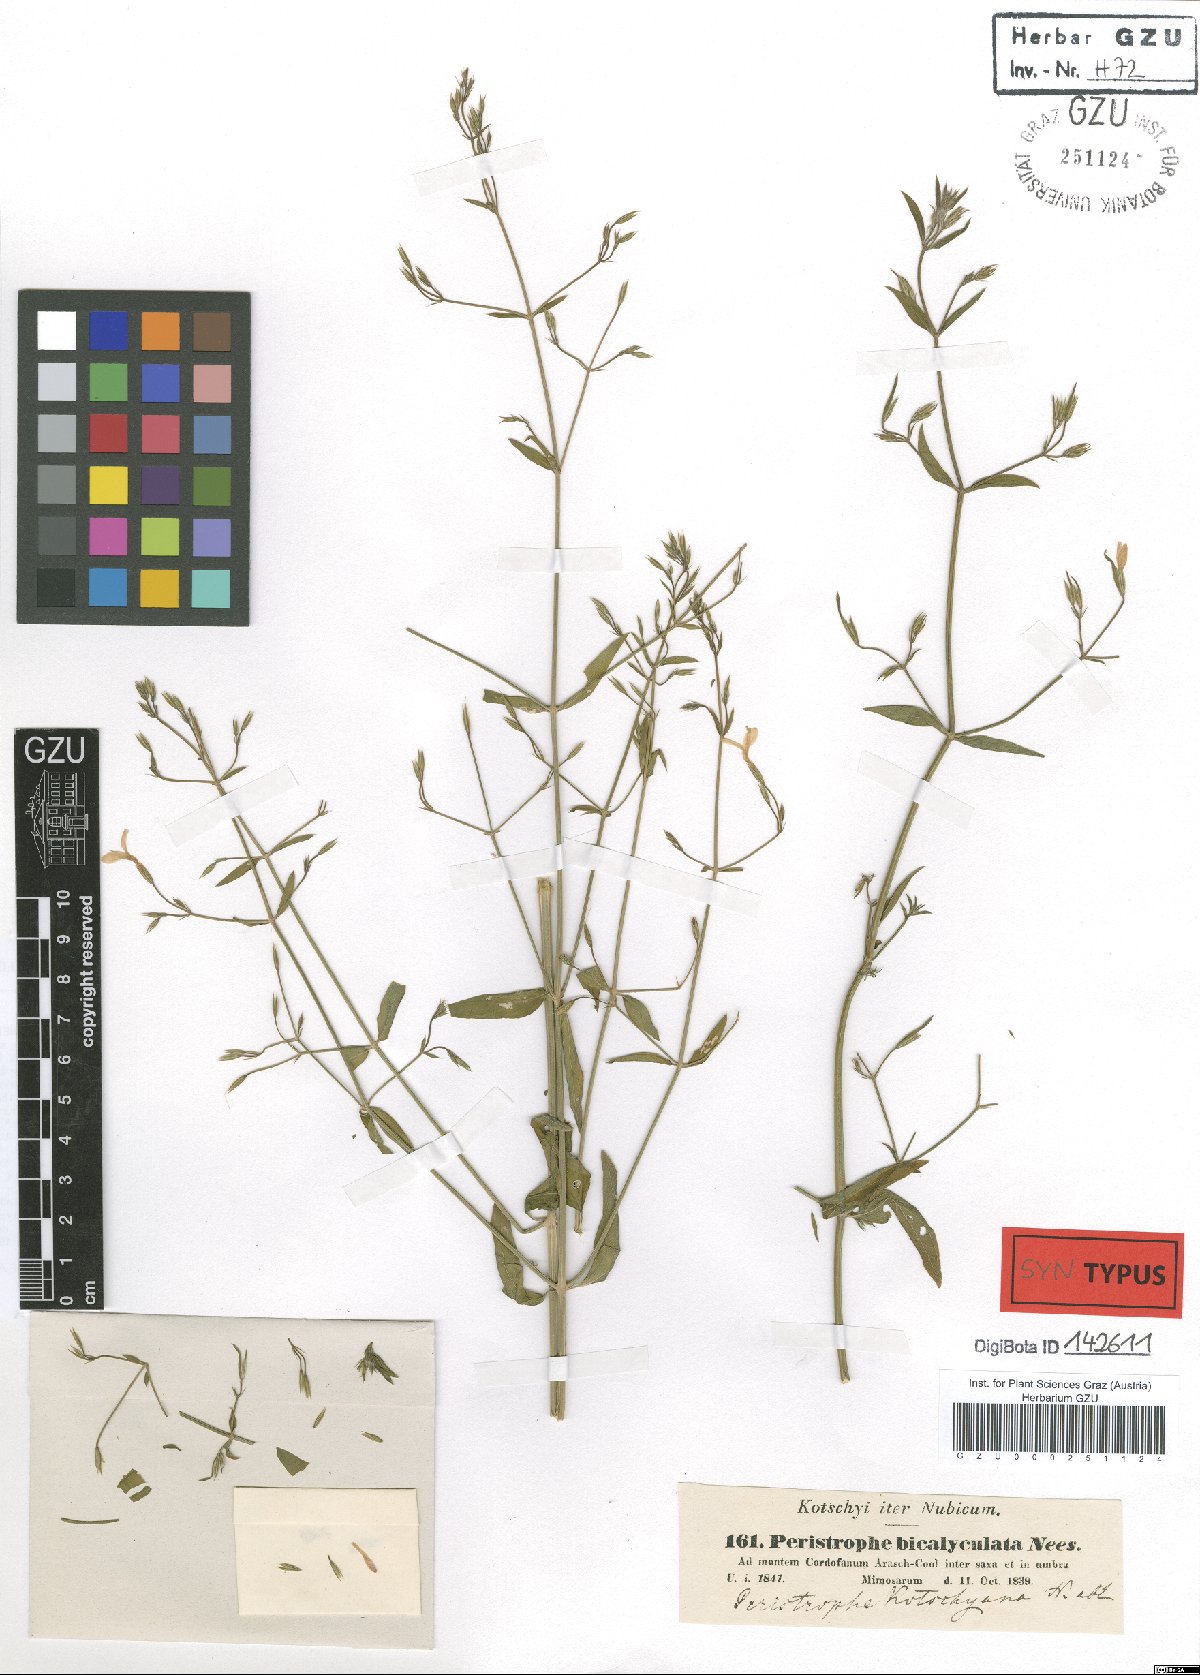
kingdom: Plantae
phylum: Tracheophyta
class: Magnoliopsida
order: Lamiales
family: Acanthaceae
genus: Dicliptera
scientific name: Dicliptera paniculata
